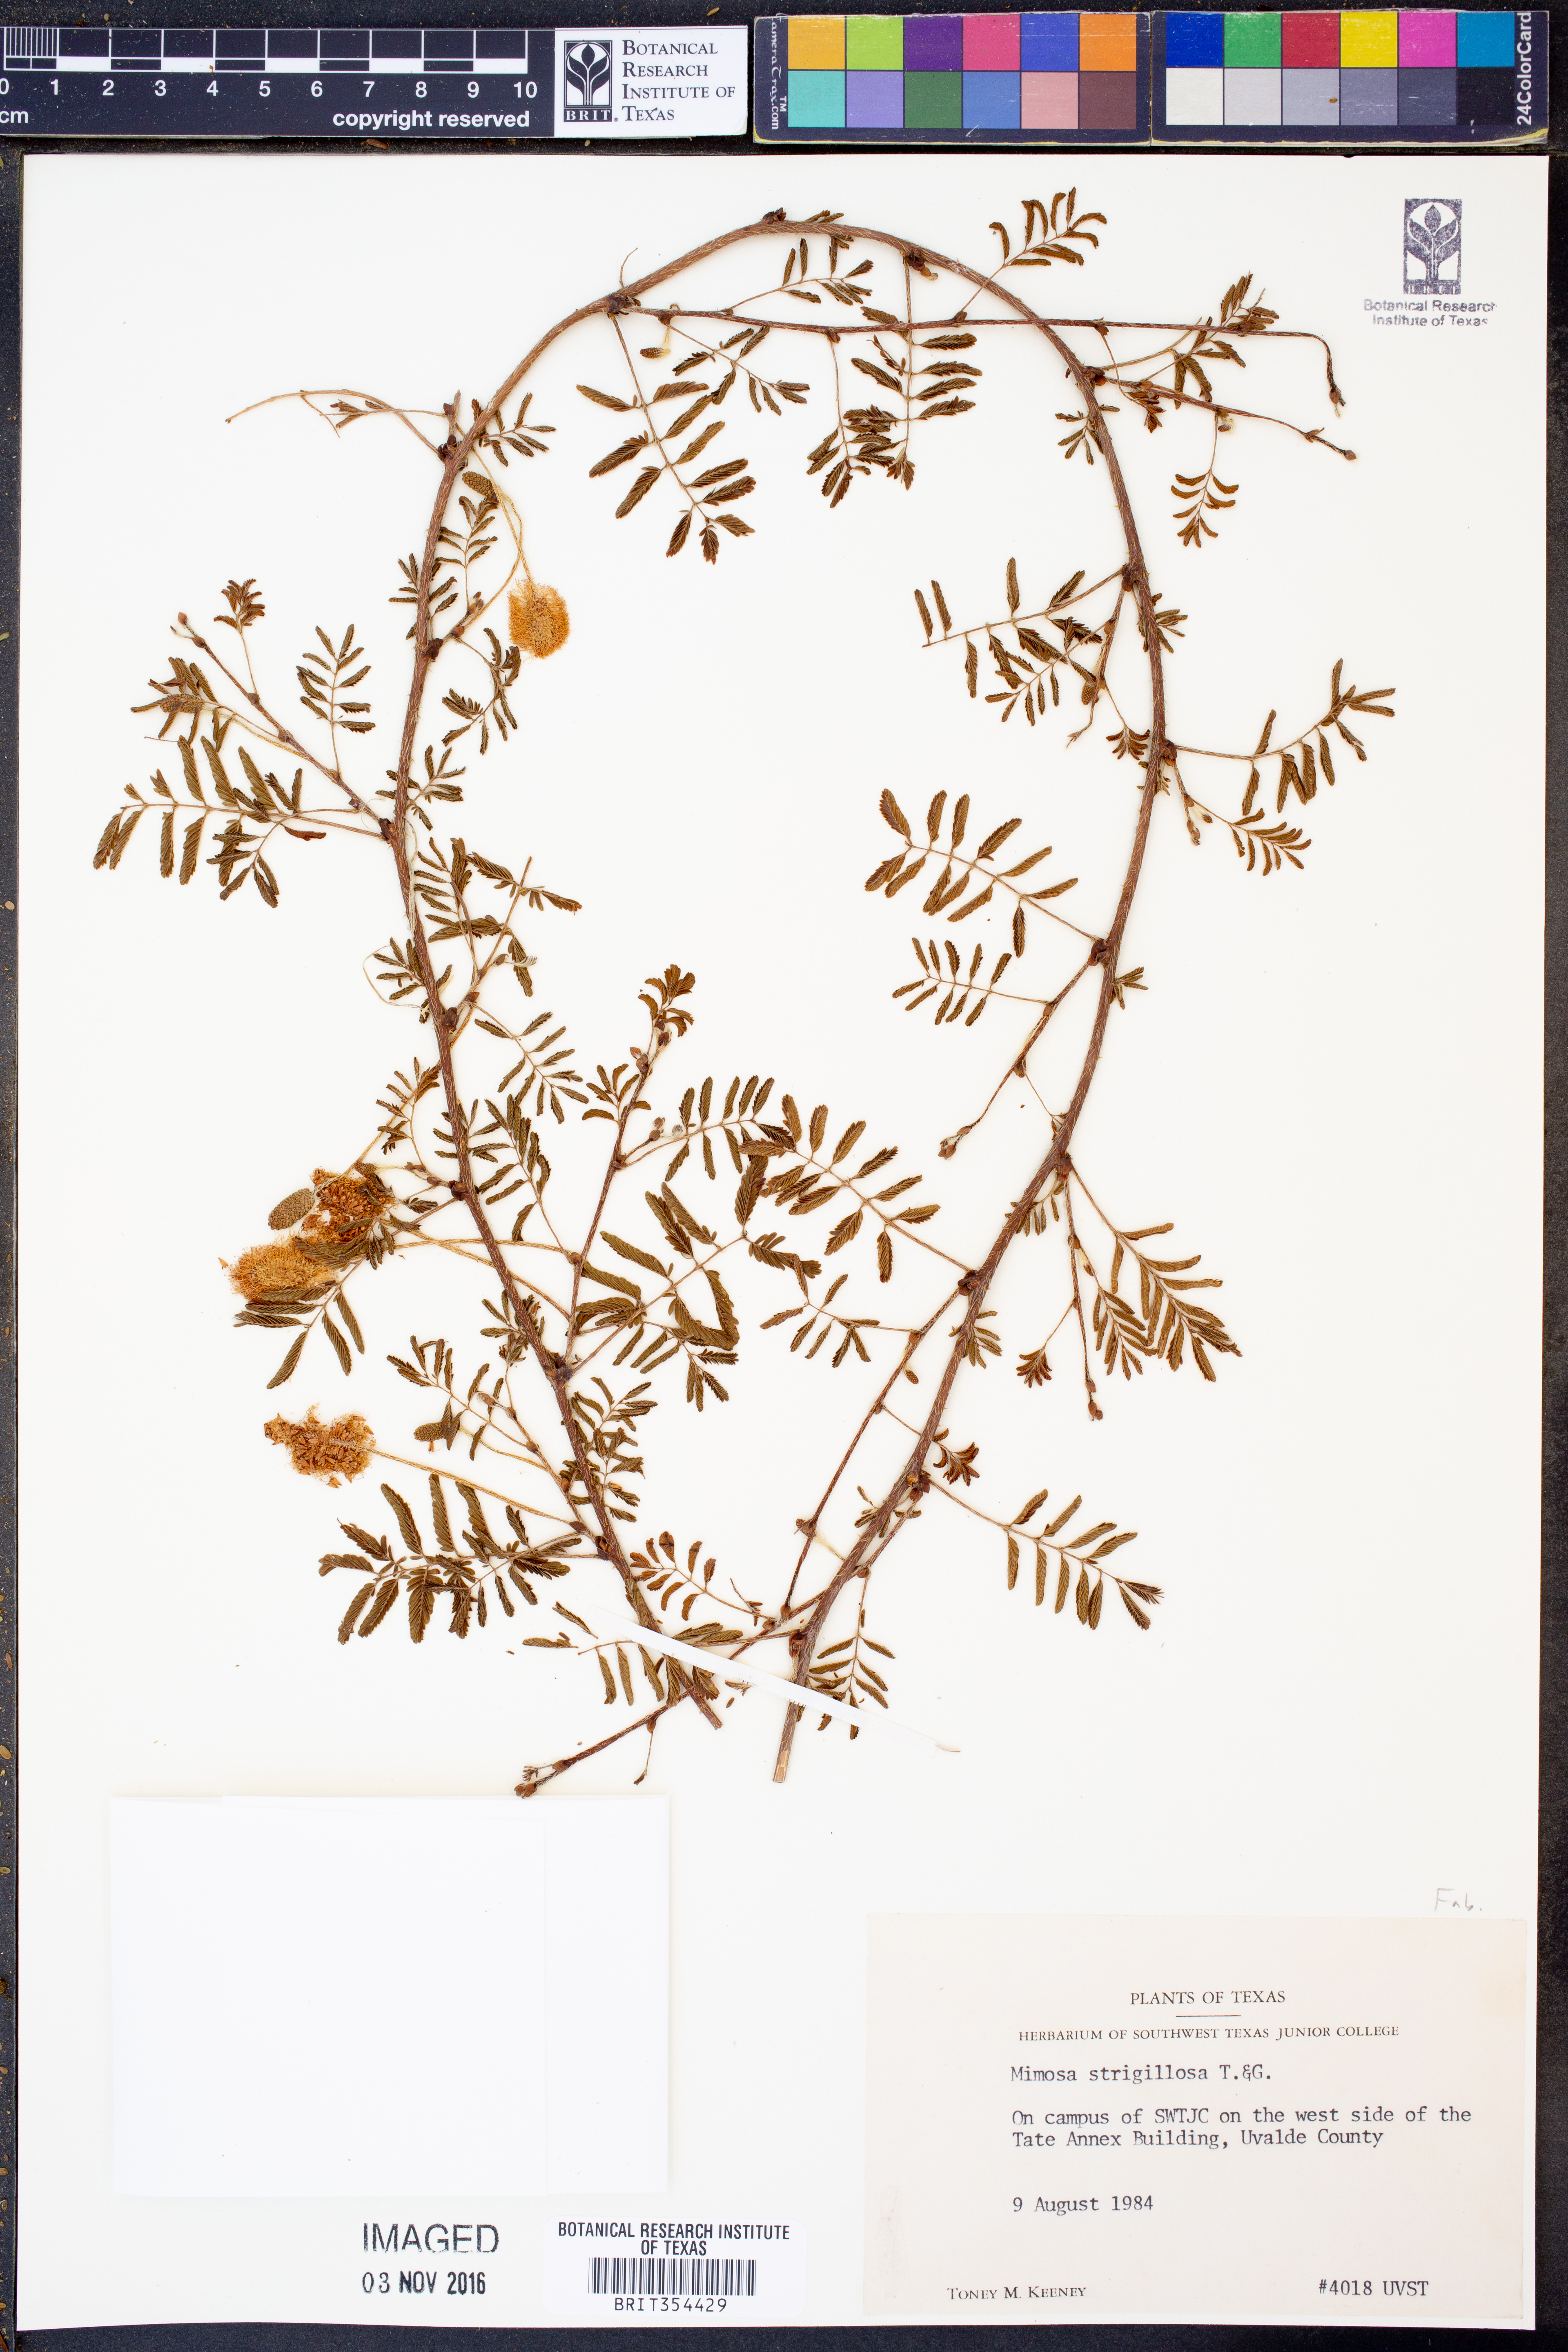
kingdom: Plantae
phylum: Tracheophyta
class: Magnoliopsida
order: Fabales
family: Fabaceae
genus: Mimosa
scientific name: Mimosa strigillosa
